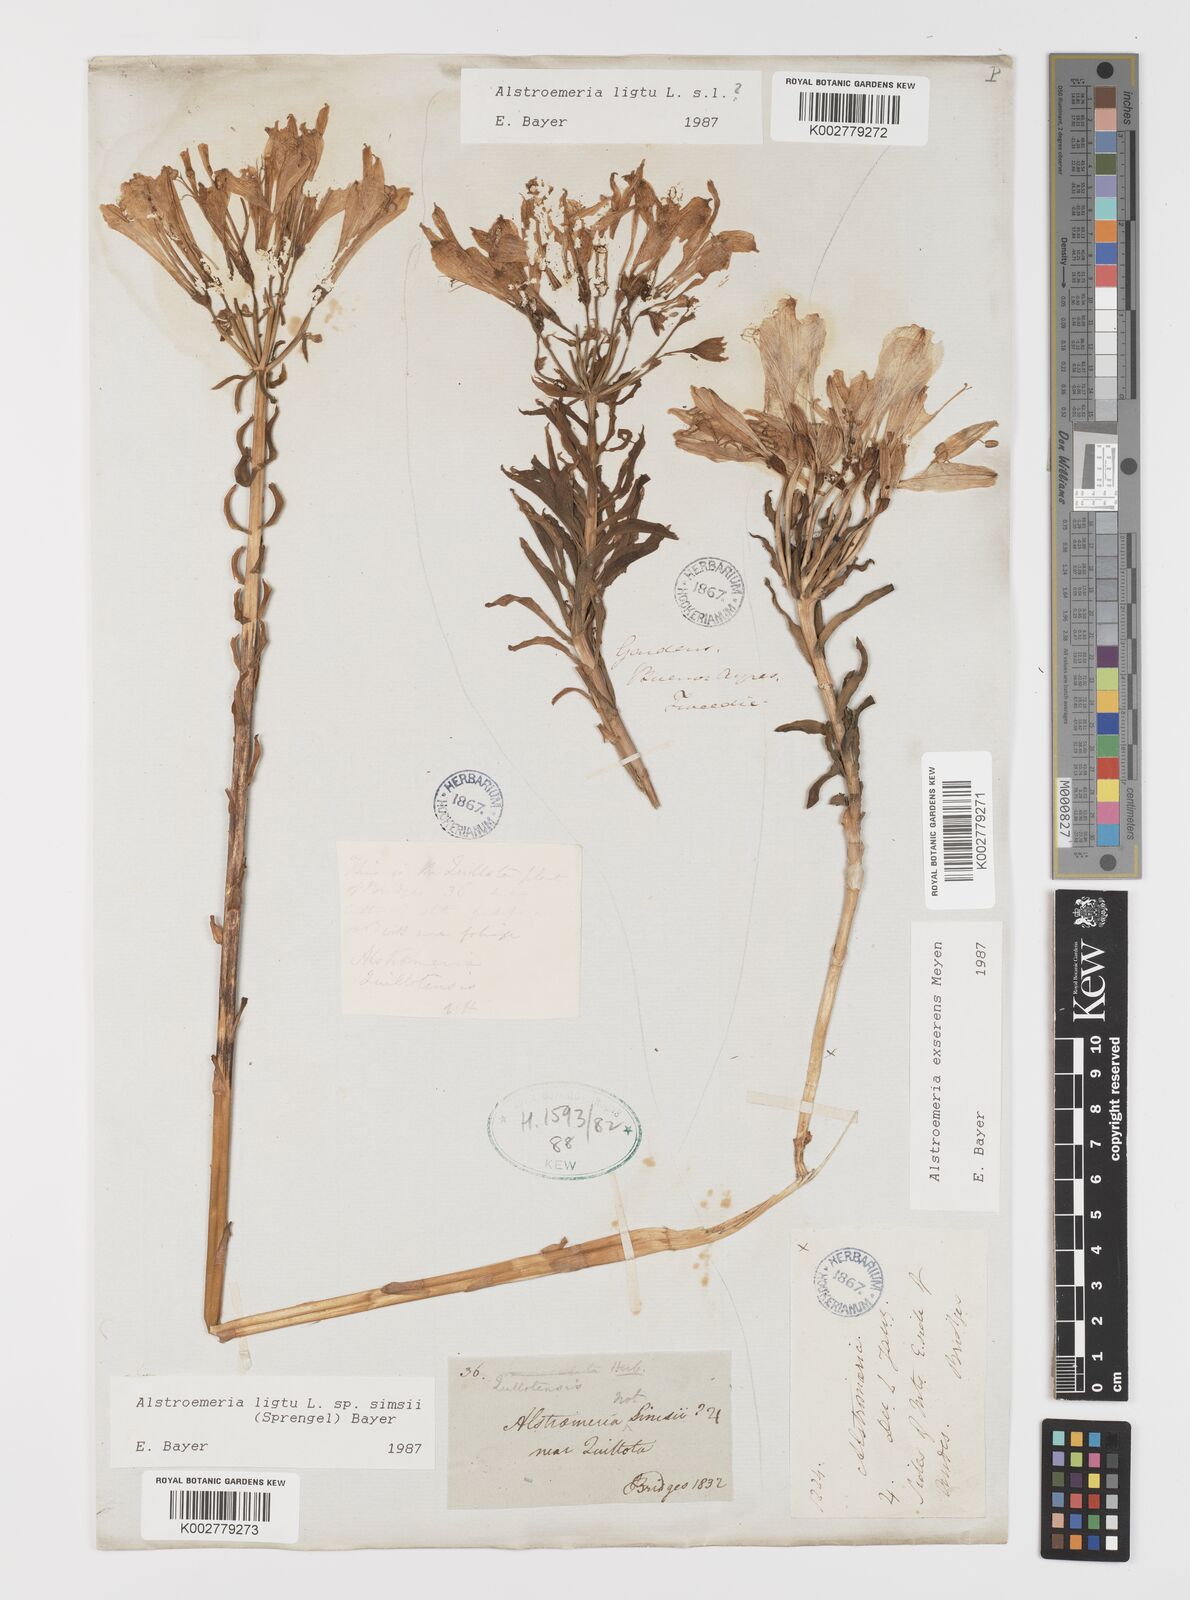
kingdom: Plantae
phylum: Tracheophyta
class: Liliopsida
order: Liliales
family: Alstroemeriaceae
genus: Alstroemeria
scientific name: Alstroemeria exserens
